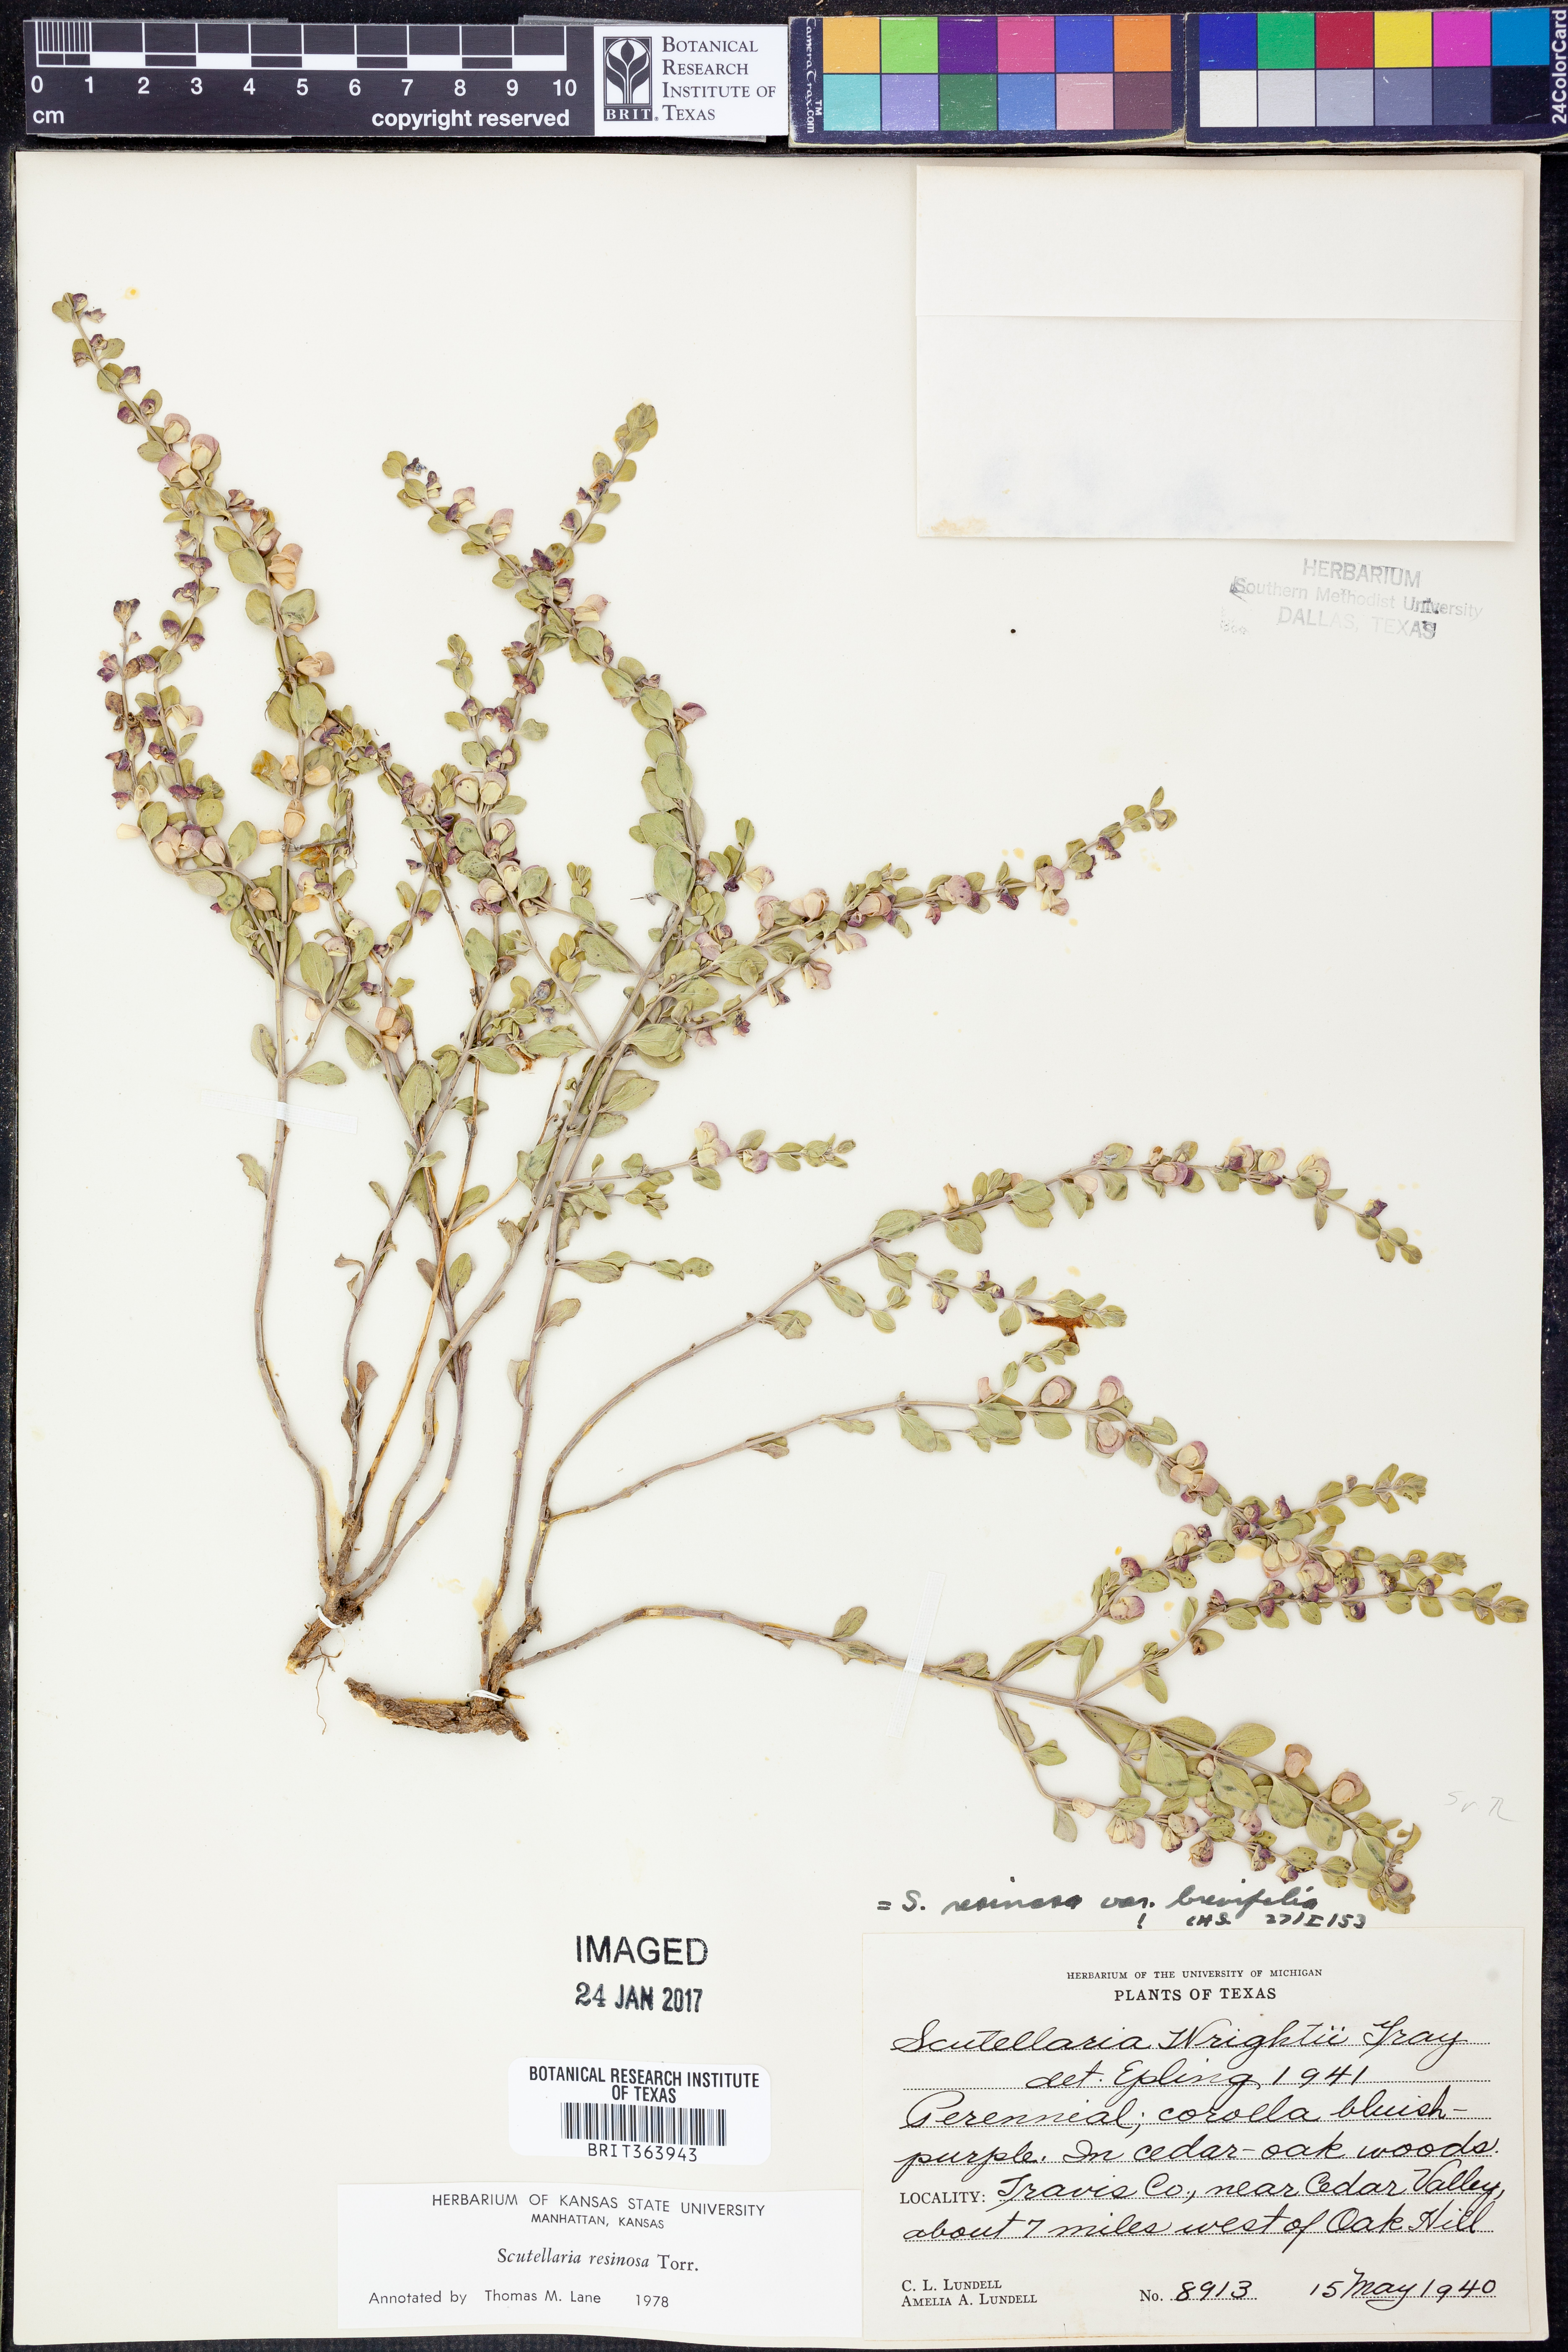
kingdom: Plantae
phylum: Tracheophyta
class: Magnoliopsida
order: Lamiales
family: Lamiaceae
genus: Scutellaria
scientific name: Scutellaria resinosa
